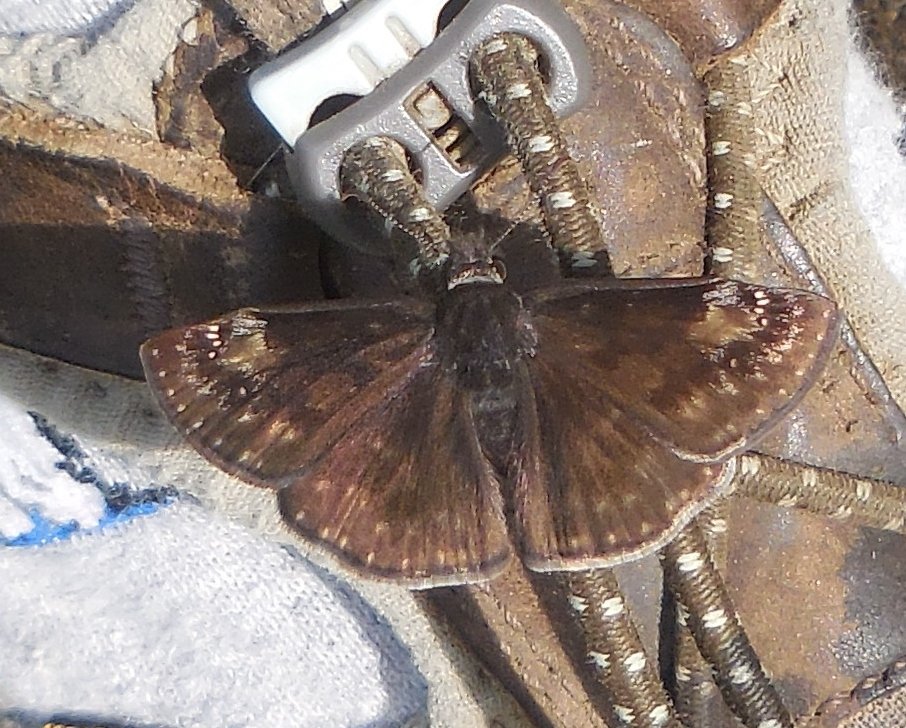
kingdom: Animalia
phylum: Arthropoda
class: Insecta
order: Lepidoptera
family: Hesperiidae
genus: Erynnis
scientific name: Erynnis icelus
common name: Dreamy Duskywing
